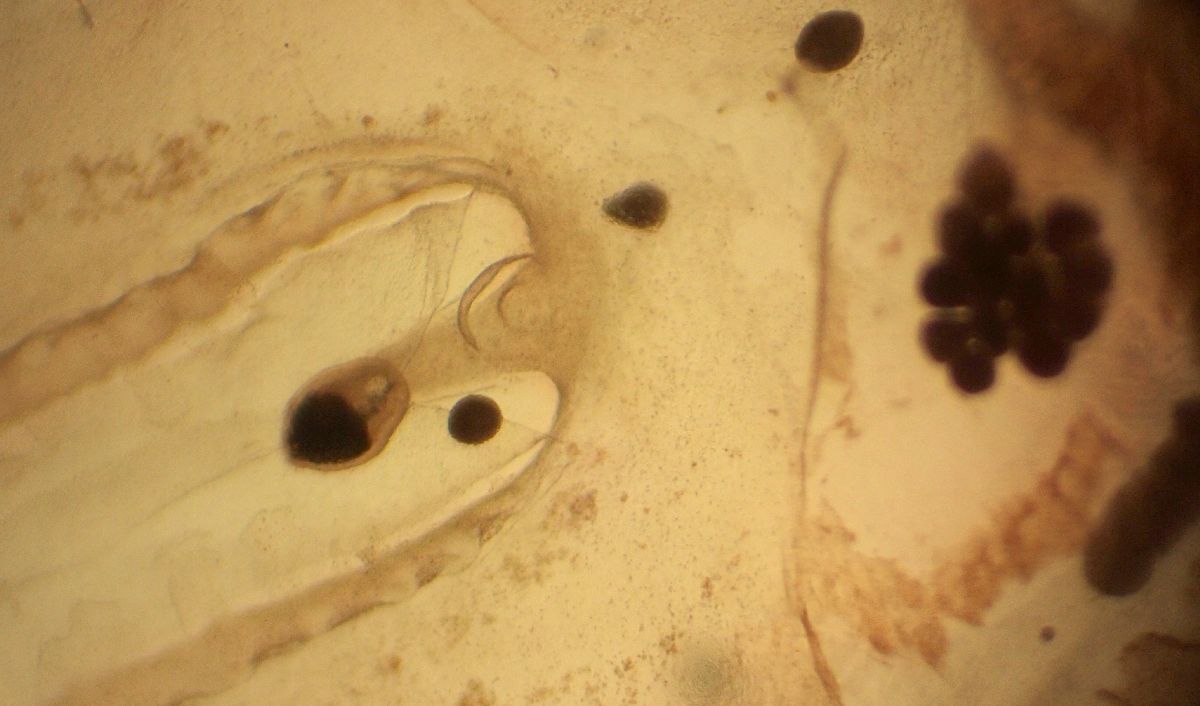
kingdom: Animalia
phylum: Cnidaria
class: Scyphozoa
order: Semaeostomeae
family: Cyaneidae
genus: Cyanea
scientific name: Cyanea tzetlinii
